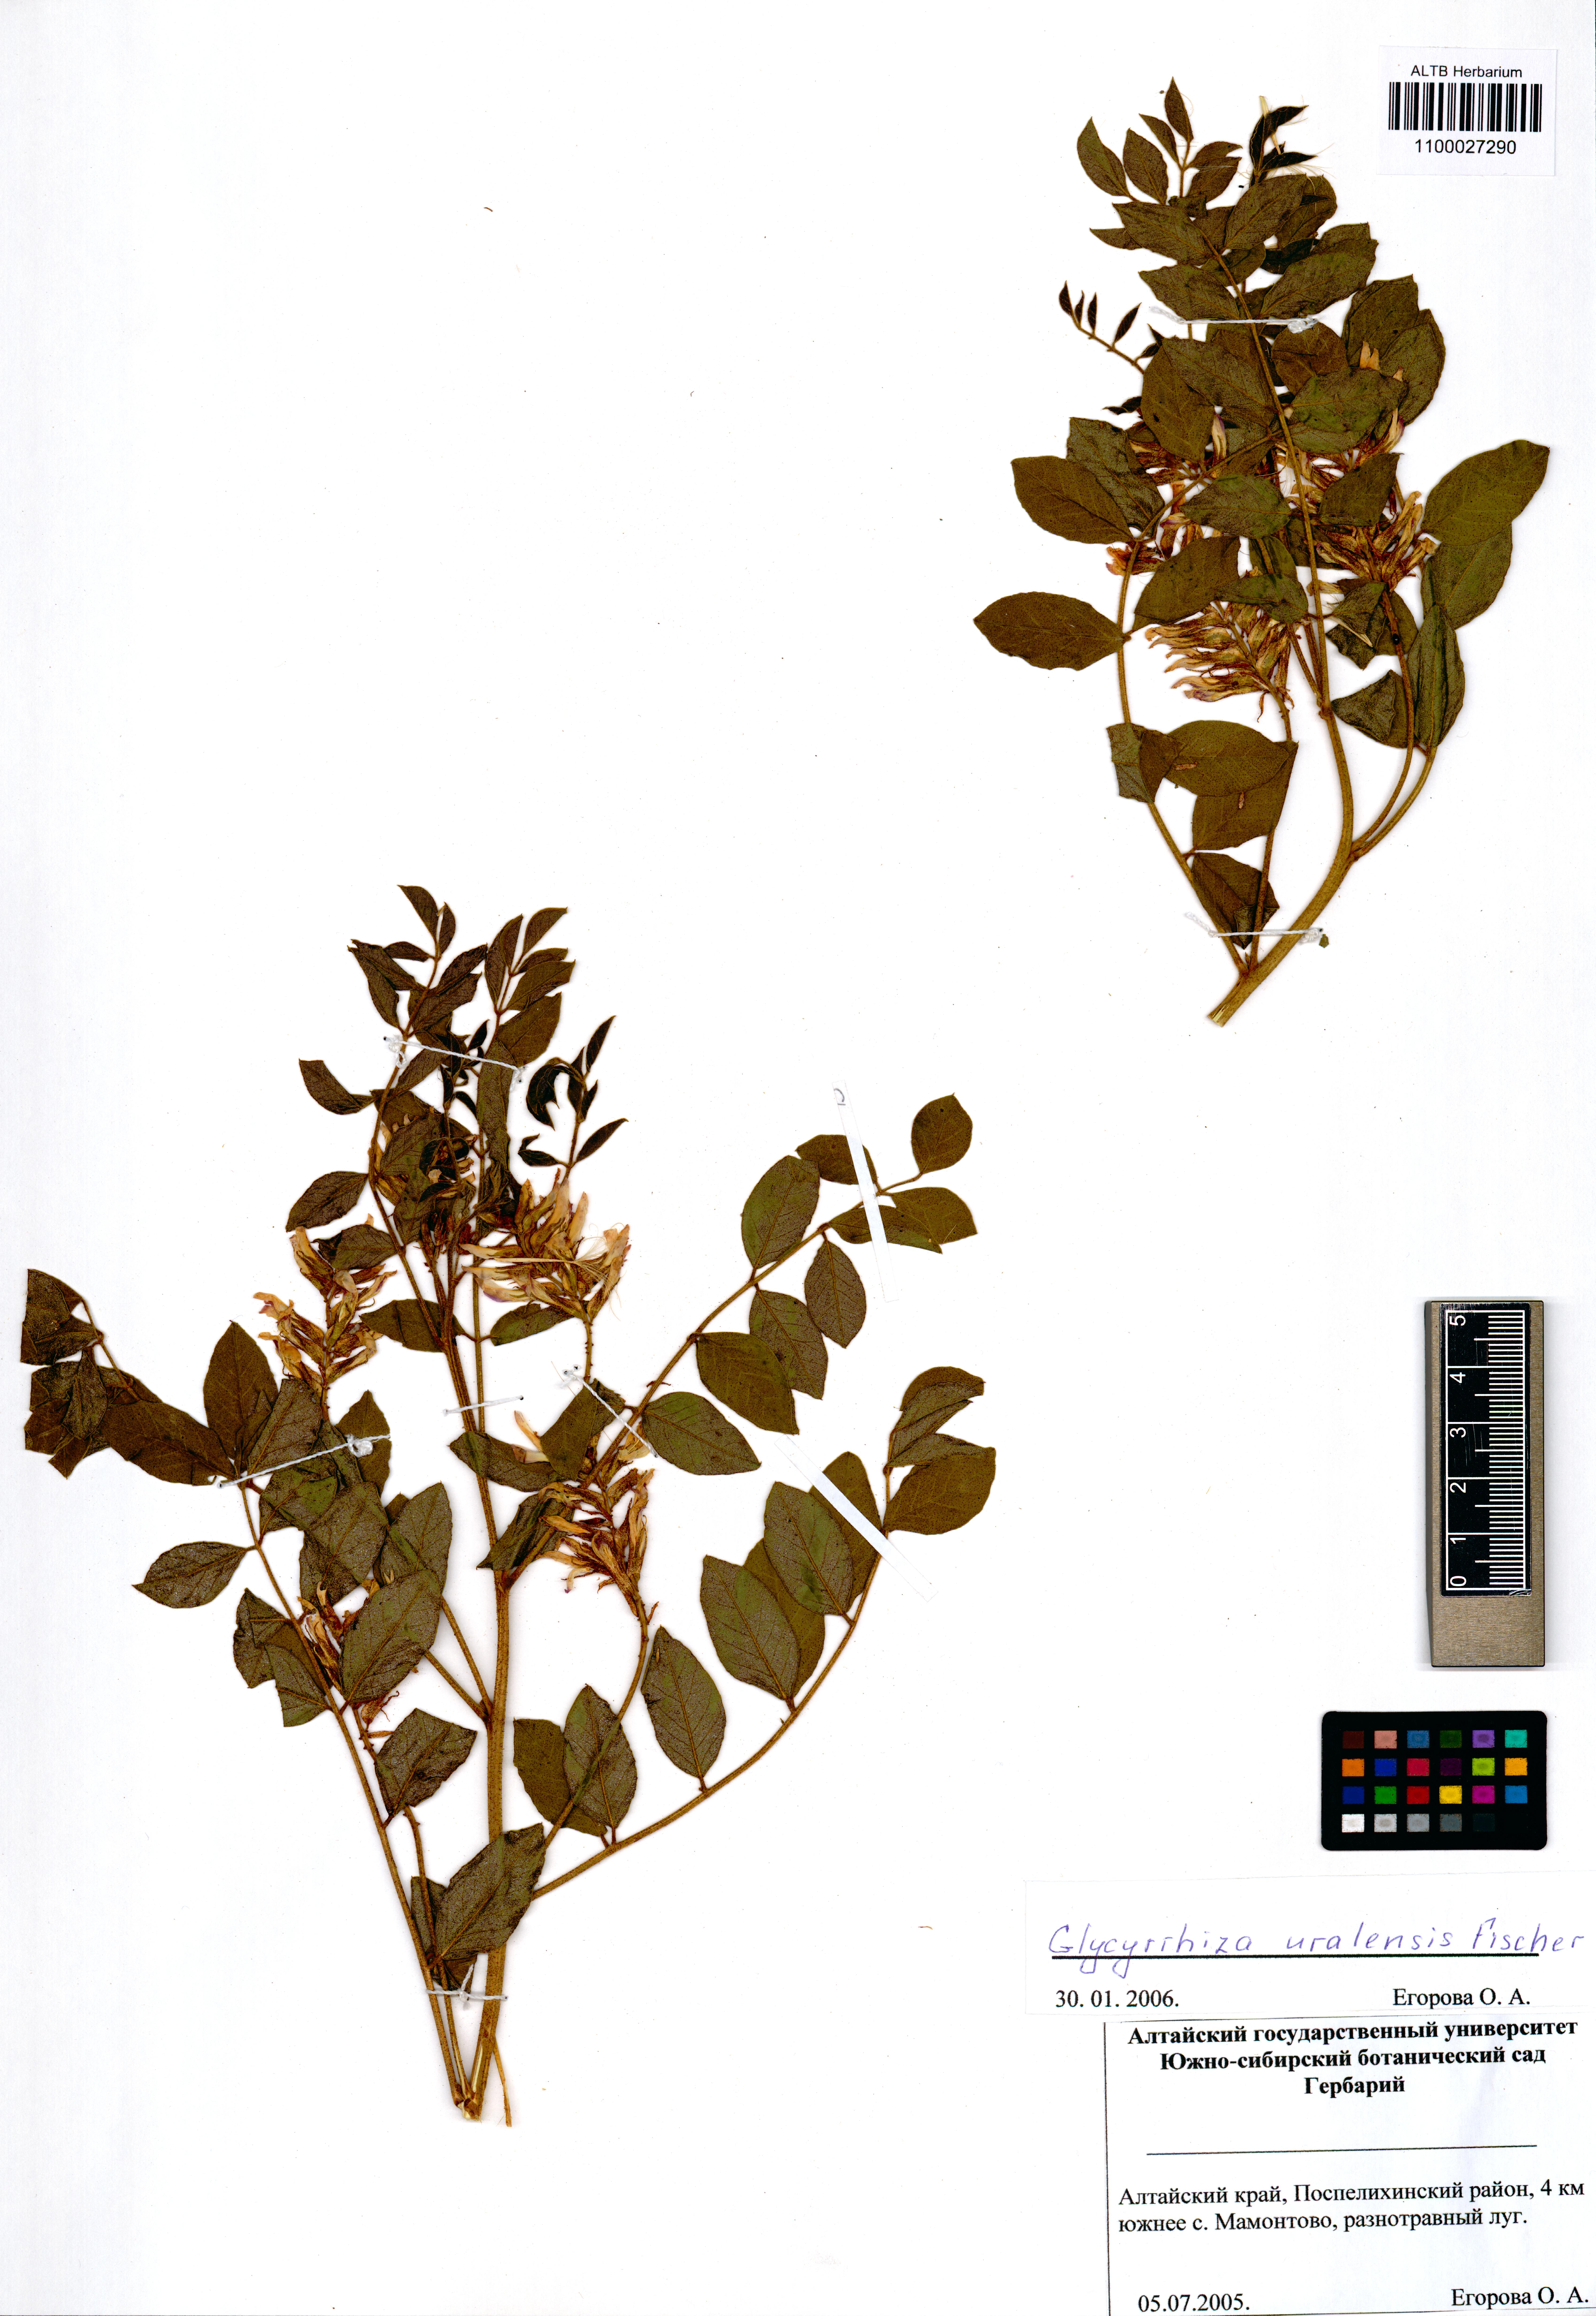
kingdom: Plantae
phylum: Tracheophyta
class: Magnoliopsida
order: Fabales
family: Fabaceae
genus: Glycyrrhiza
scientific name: Glycyrrhiza uralensis
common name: Chinese licorice
